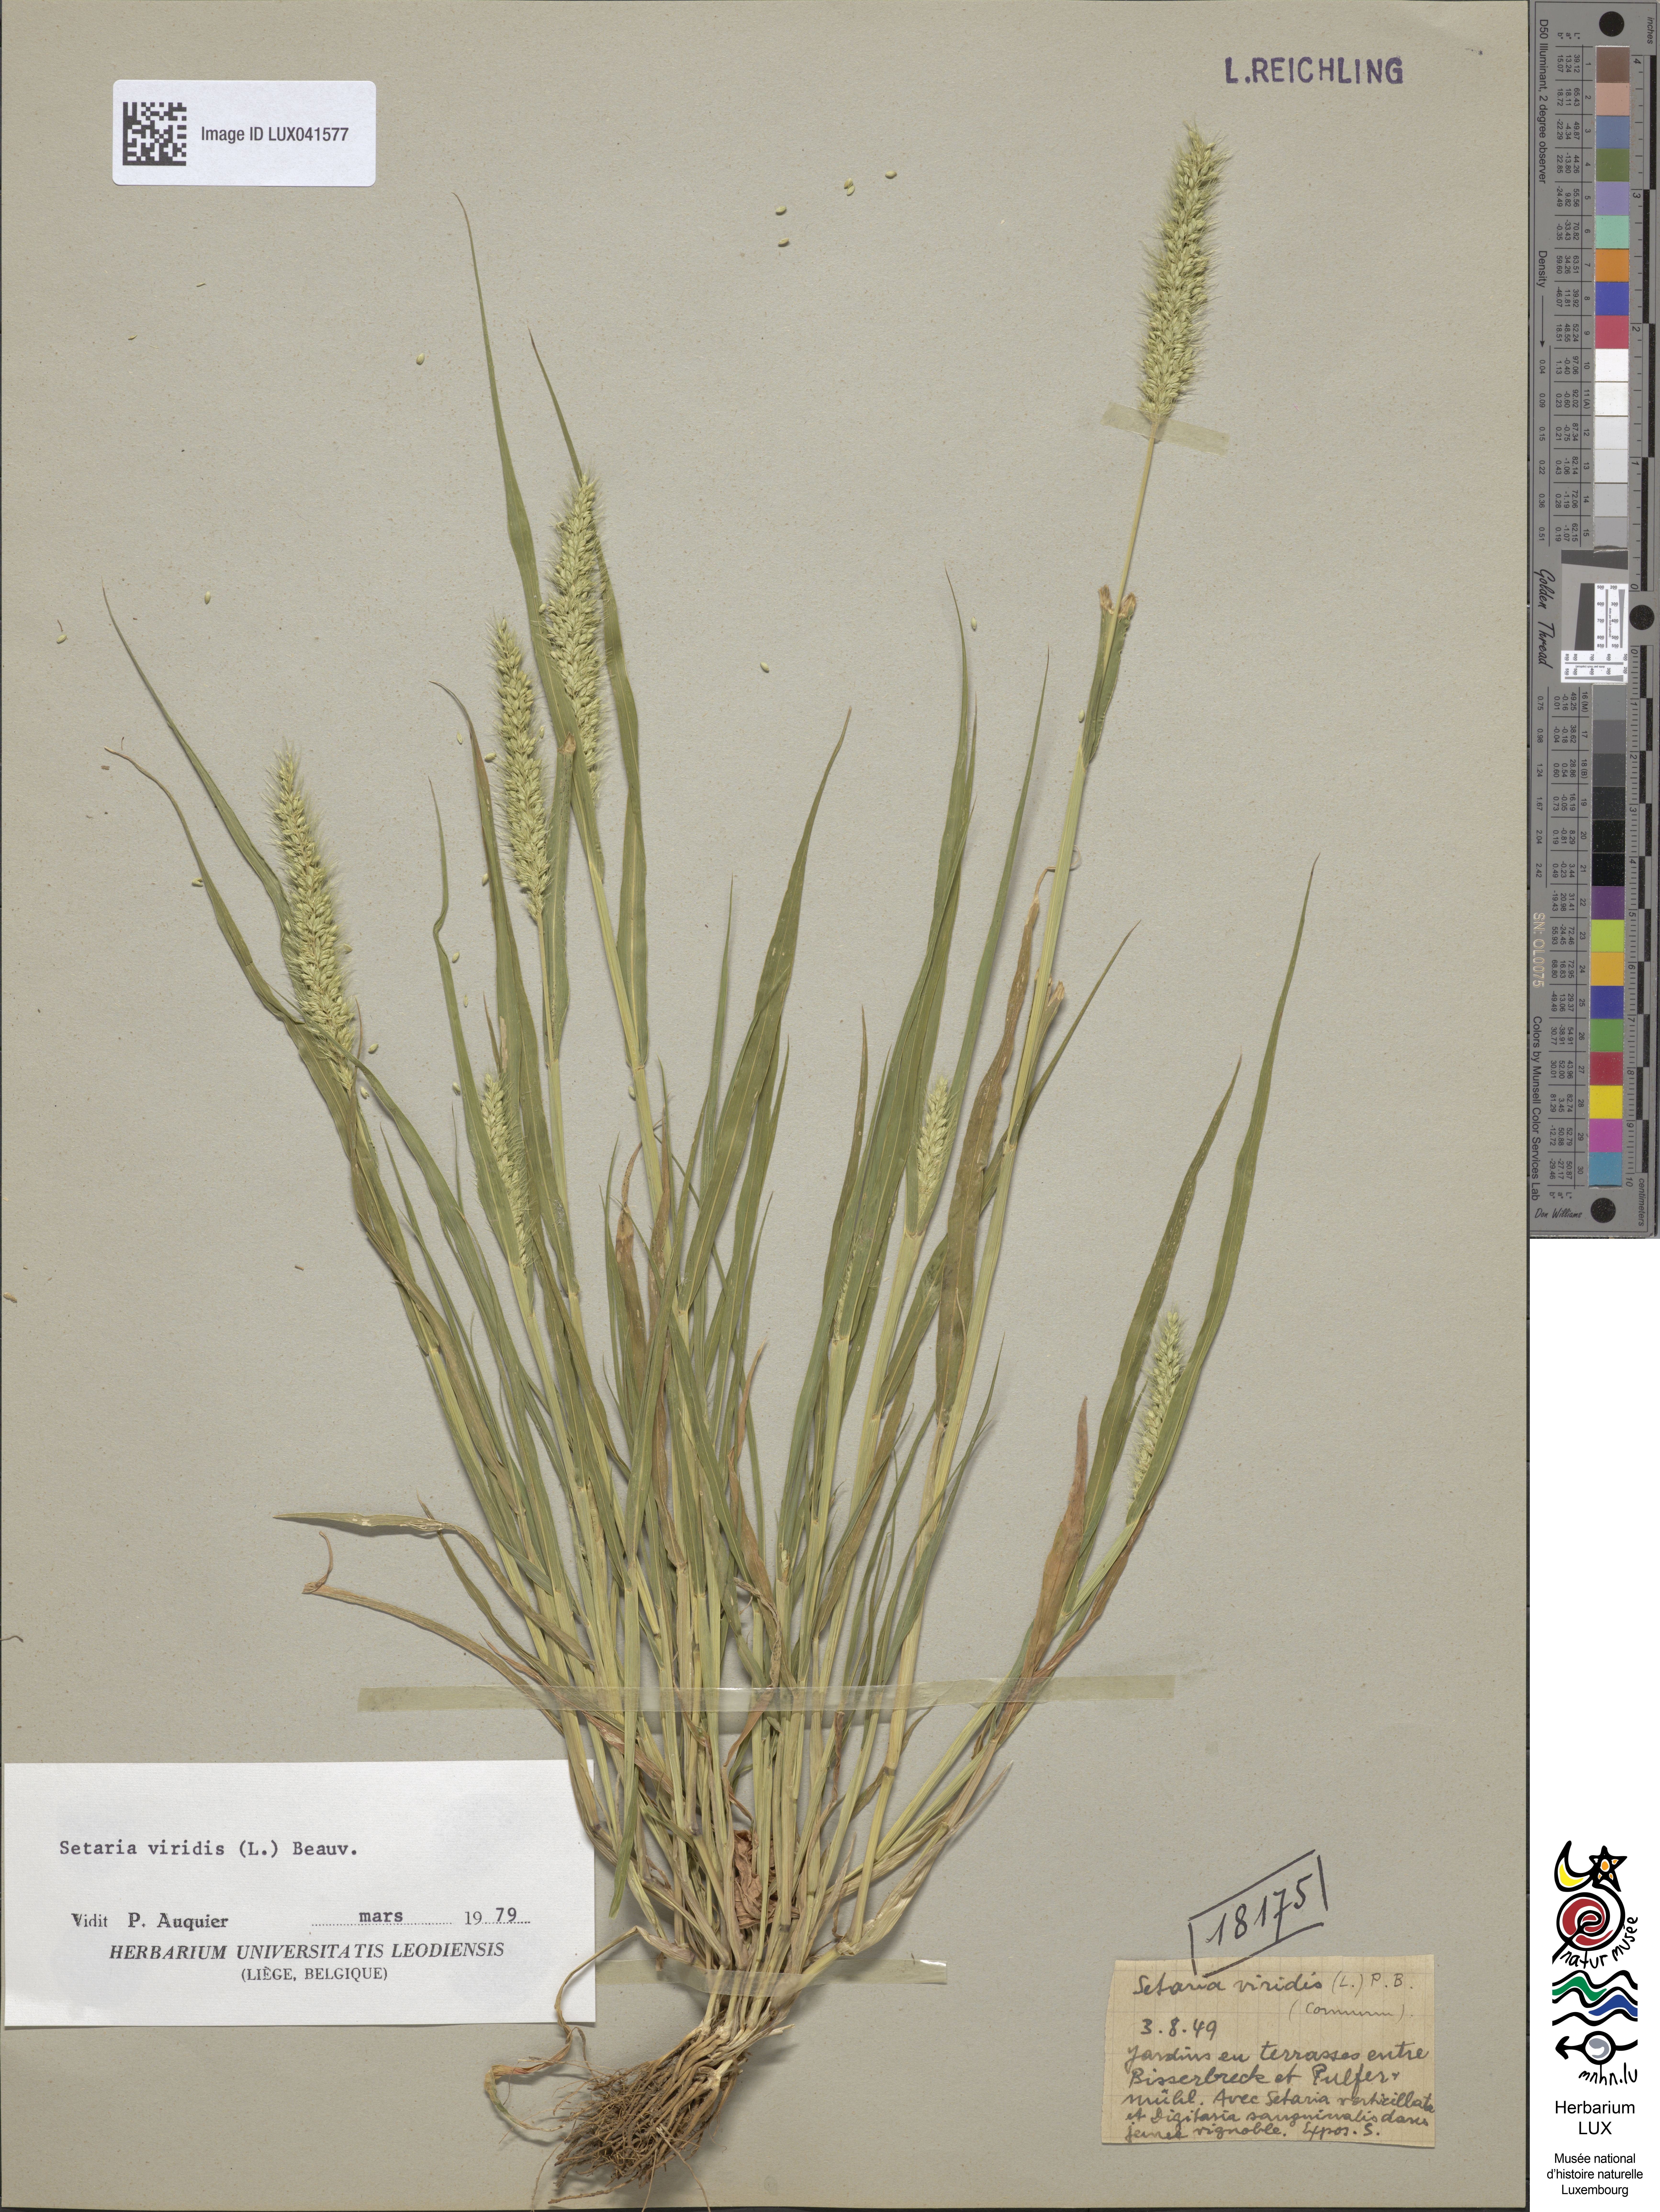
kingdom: Plantae
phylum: Tracheophyta
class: Liliopsida
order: Poales
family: Poaceae
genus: Setaria
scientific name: Setaria viridis
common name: Green bristlegrass
